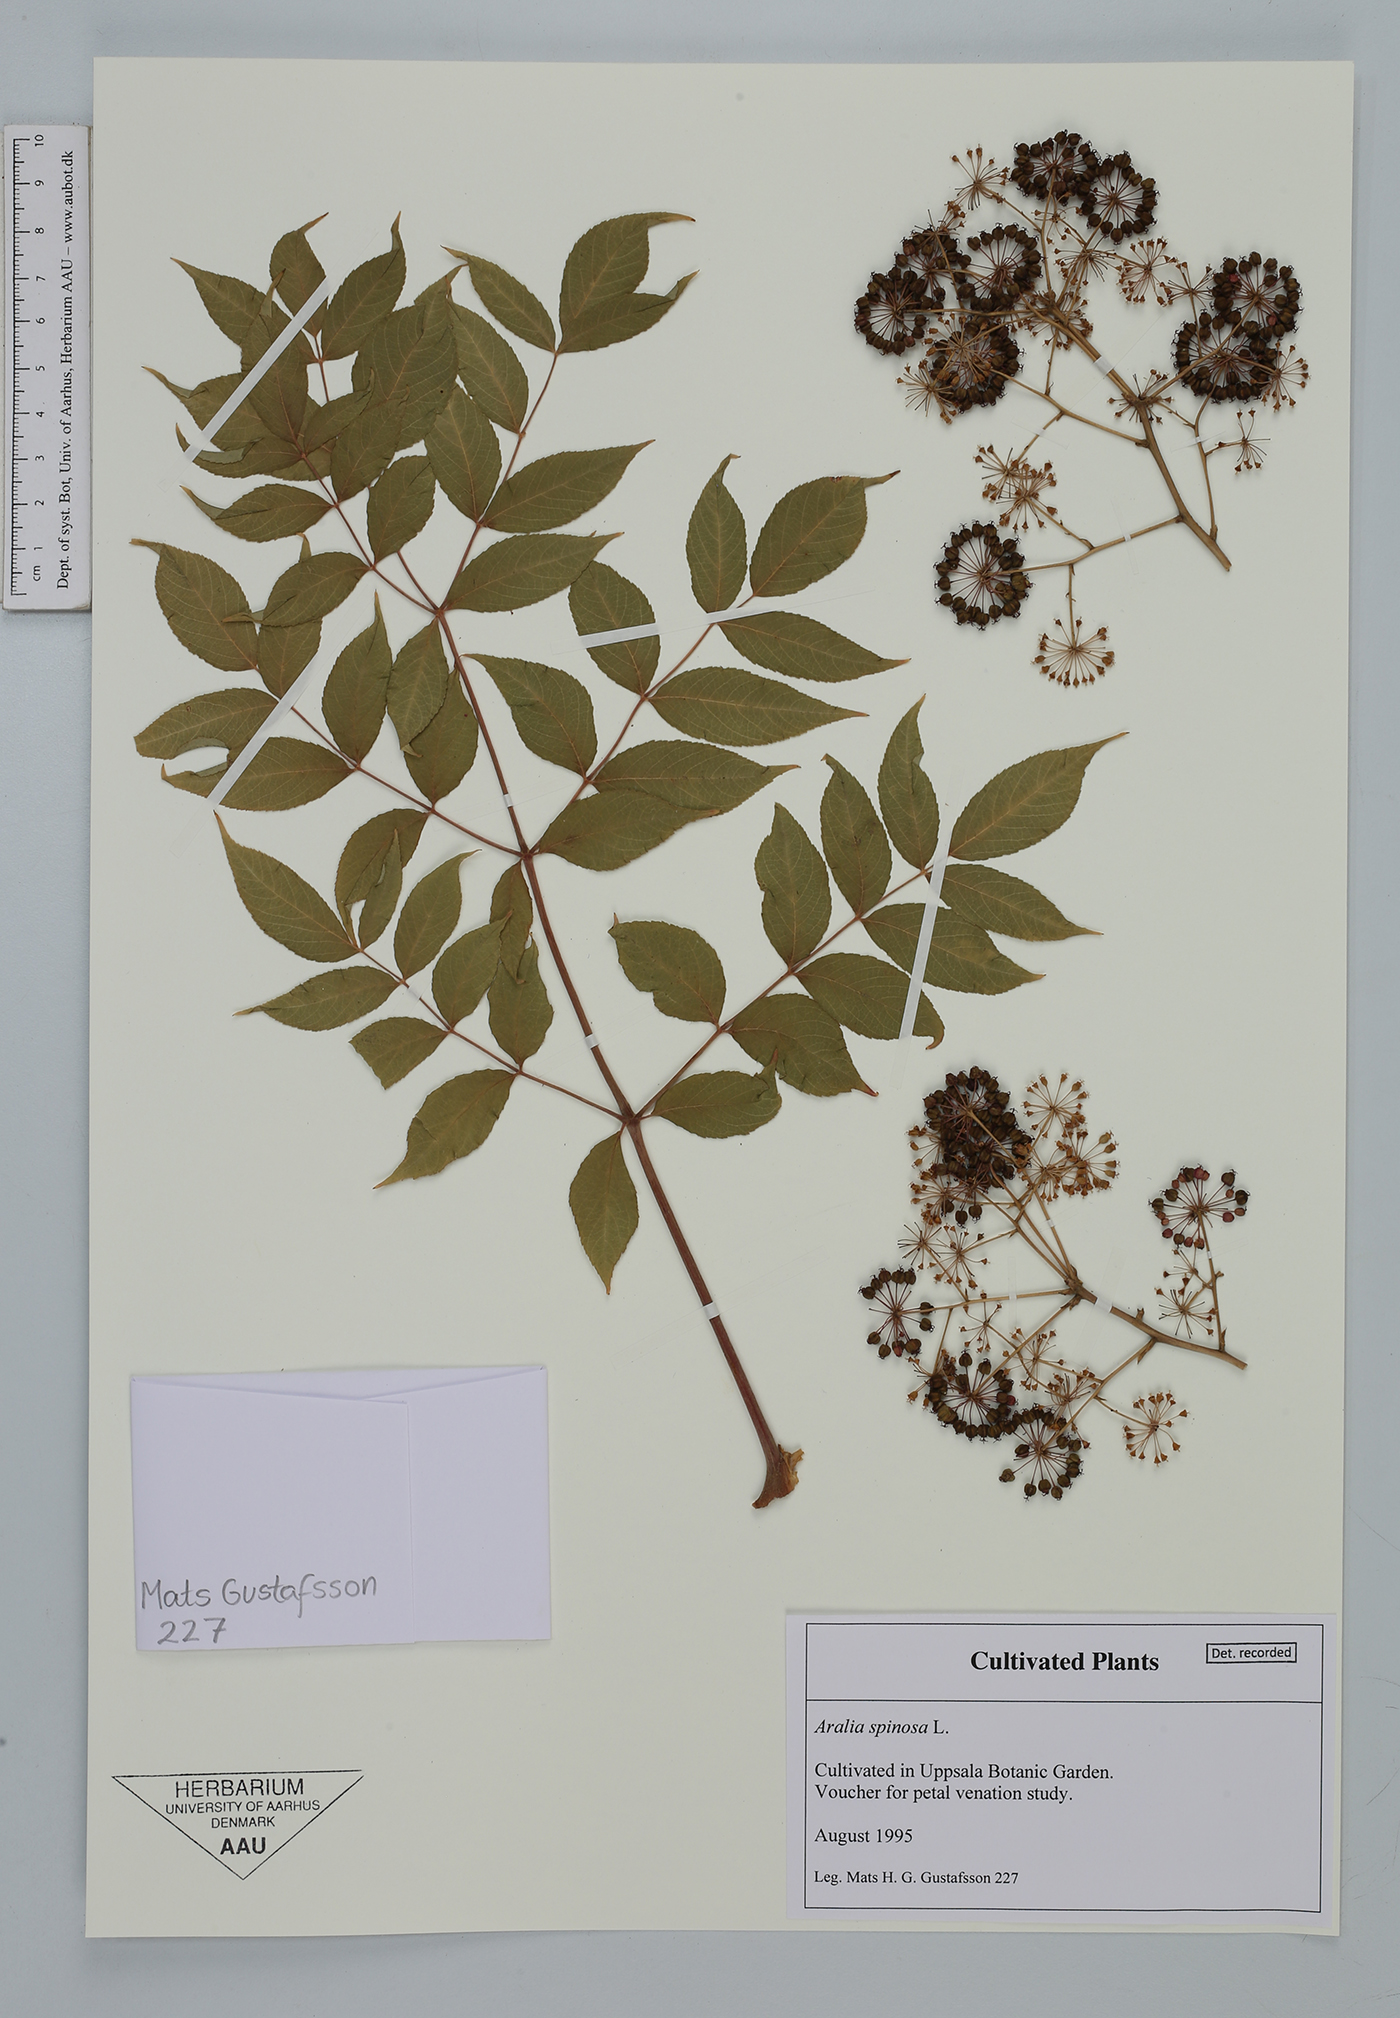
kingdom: Plantae
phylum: Tracheophyta
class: Magnoliopsida
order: Apiales
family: Araliaceae
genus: Aralia
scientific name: Aralia spinosa
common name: Hercules'-club
